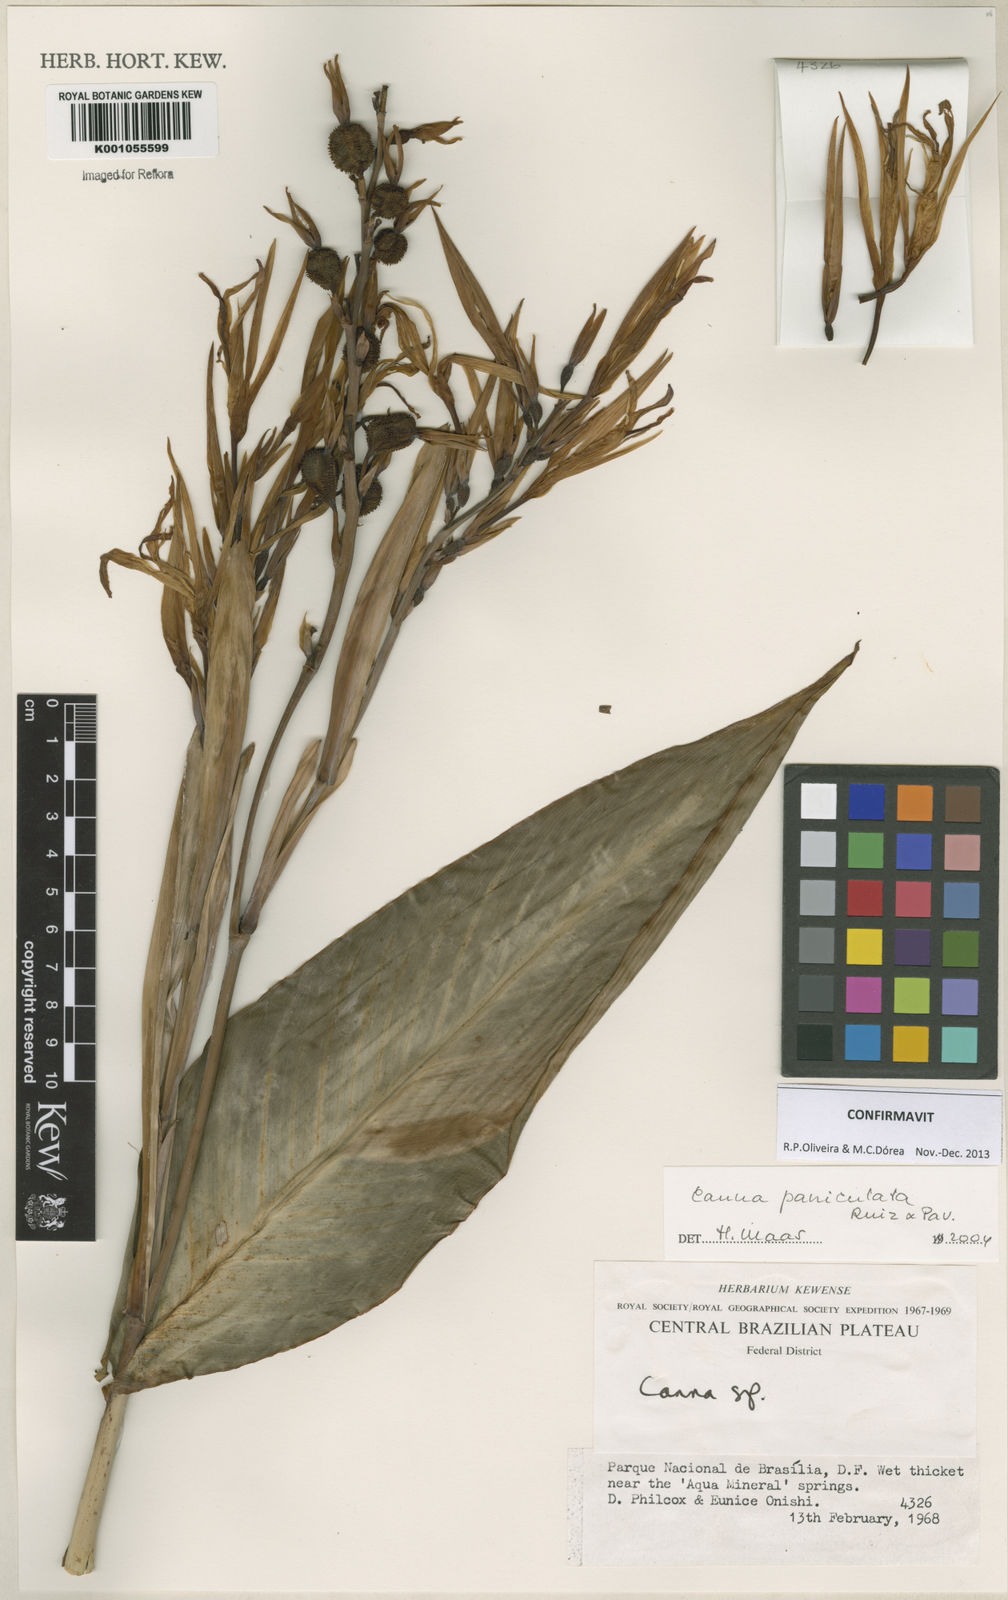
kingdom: Plantae
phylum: Tracheophyta
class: Liliopsida
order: Zingiberales
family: Cannaceae
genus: Canna
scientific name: Canna paniculata
